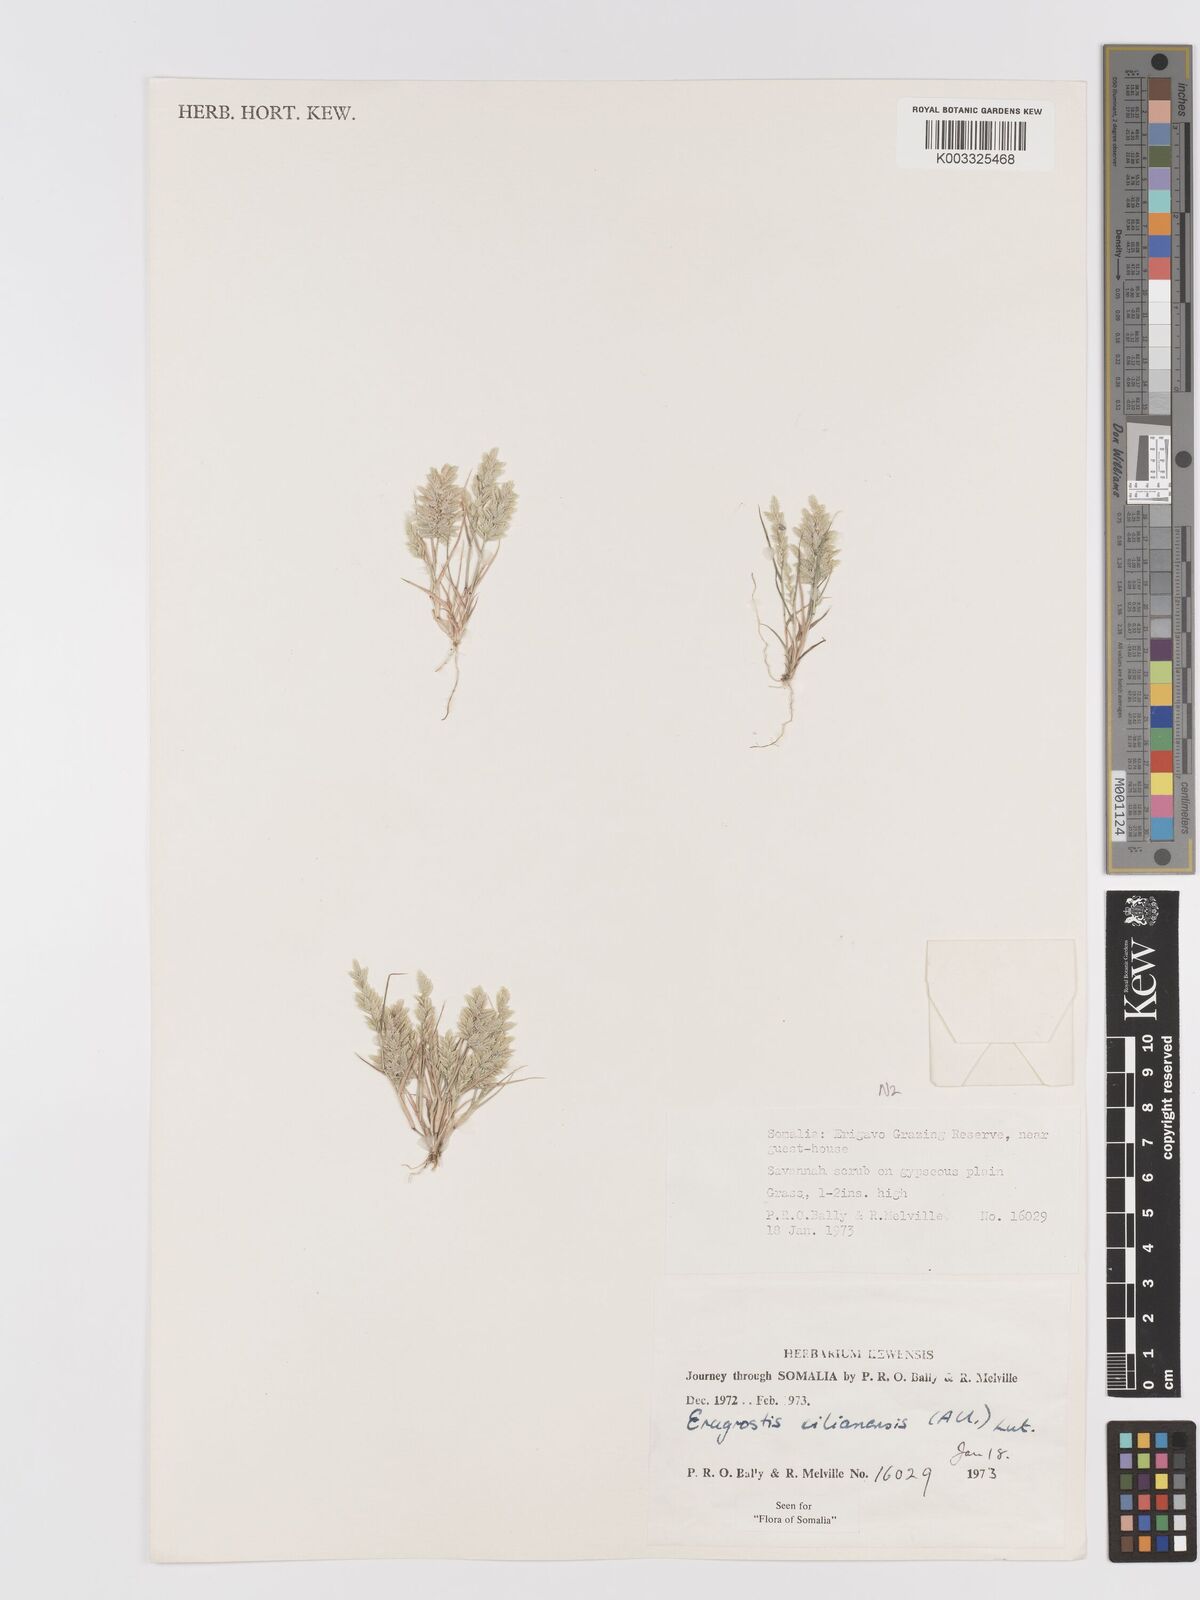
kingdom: Plantae
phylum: Tracheophyta
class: Liliopsida
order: Poales
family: Poaceae
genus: Eragrostis
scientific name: Eragrostis cilianensis
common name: Stinkgrass
